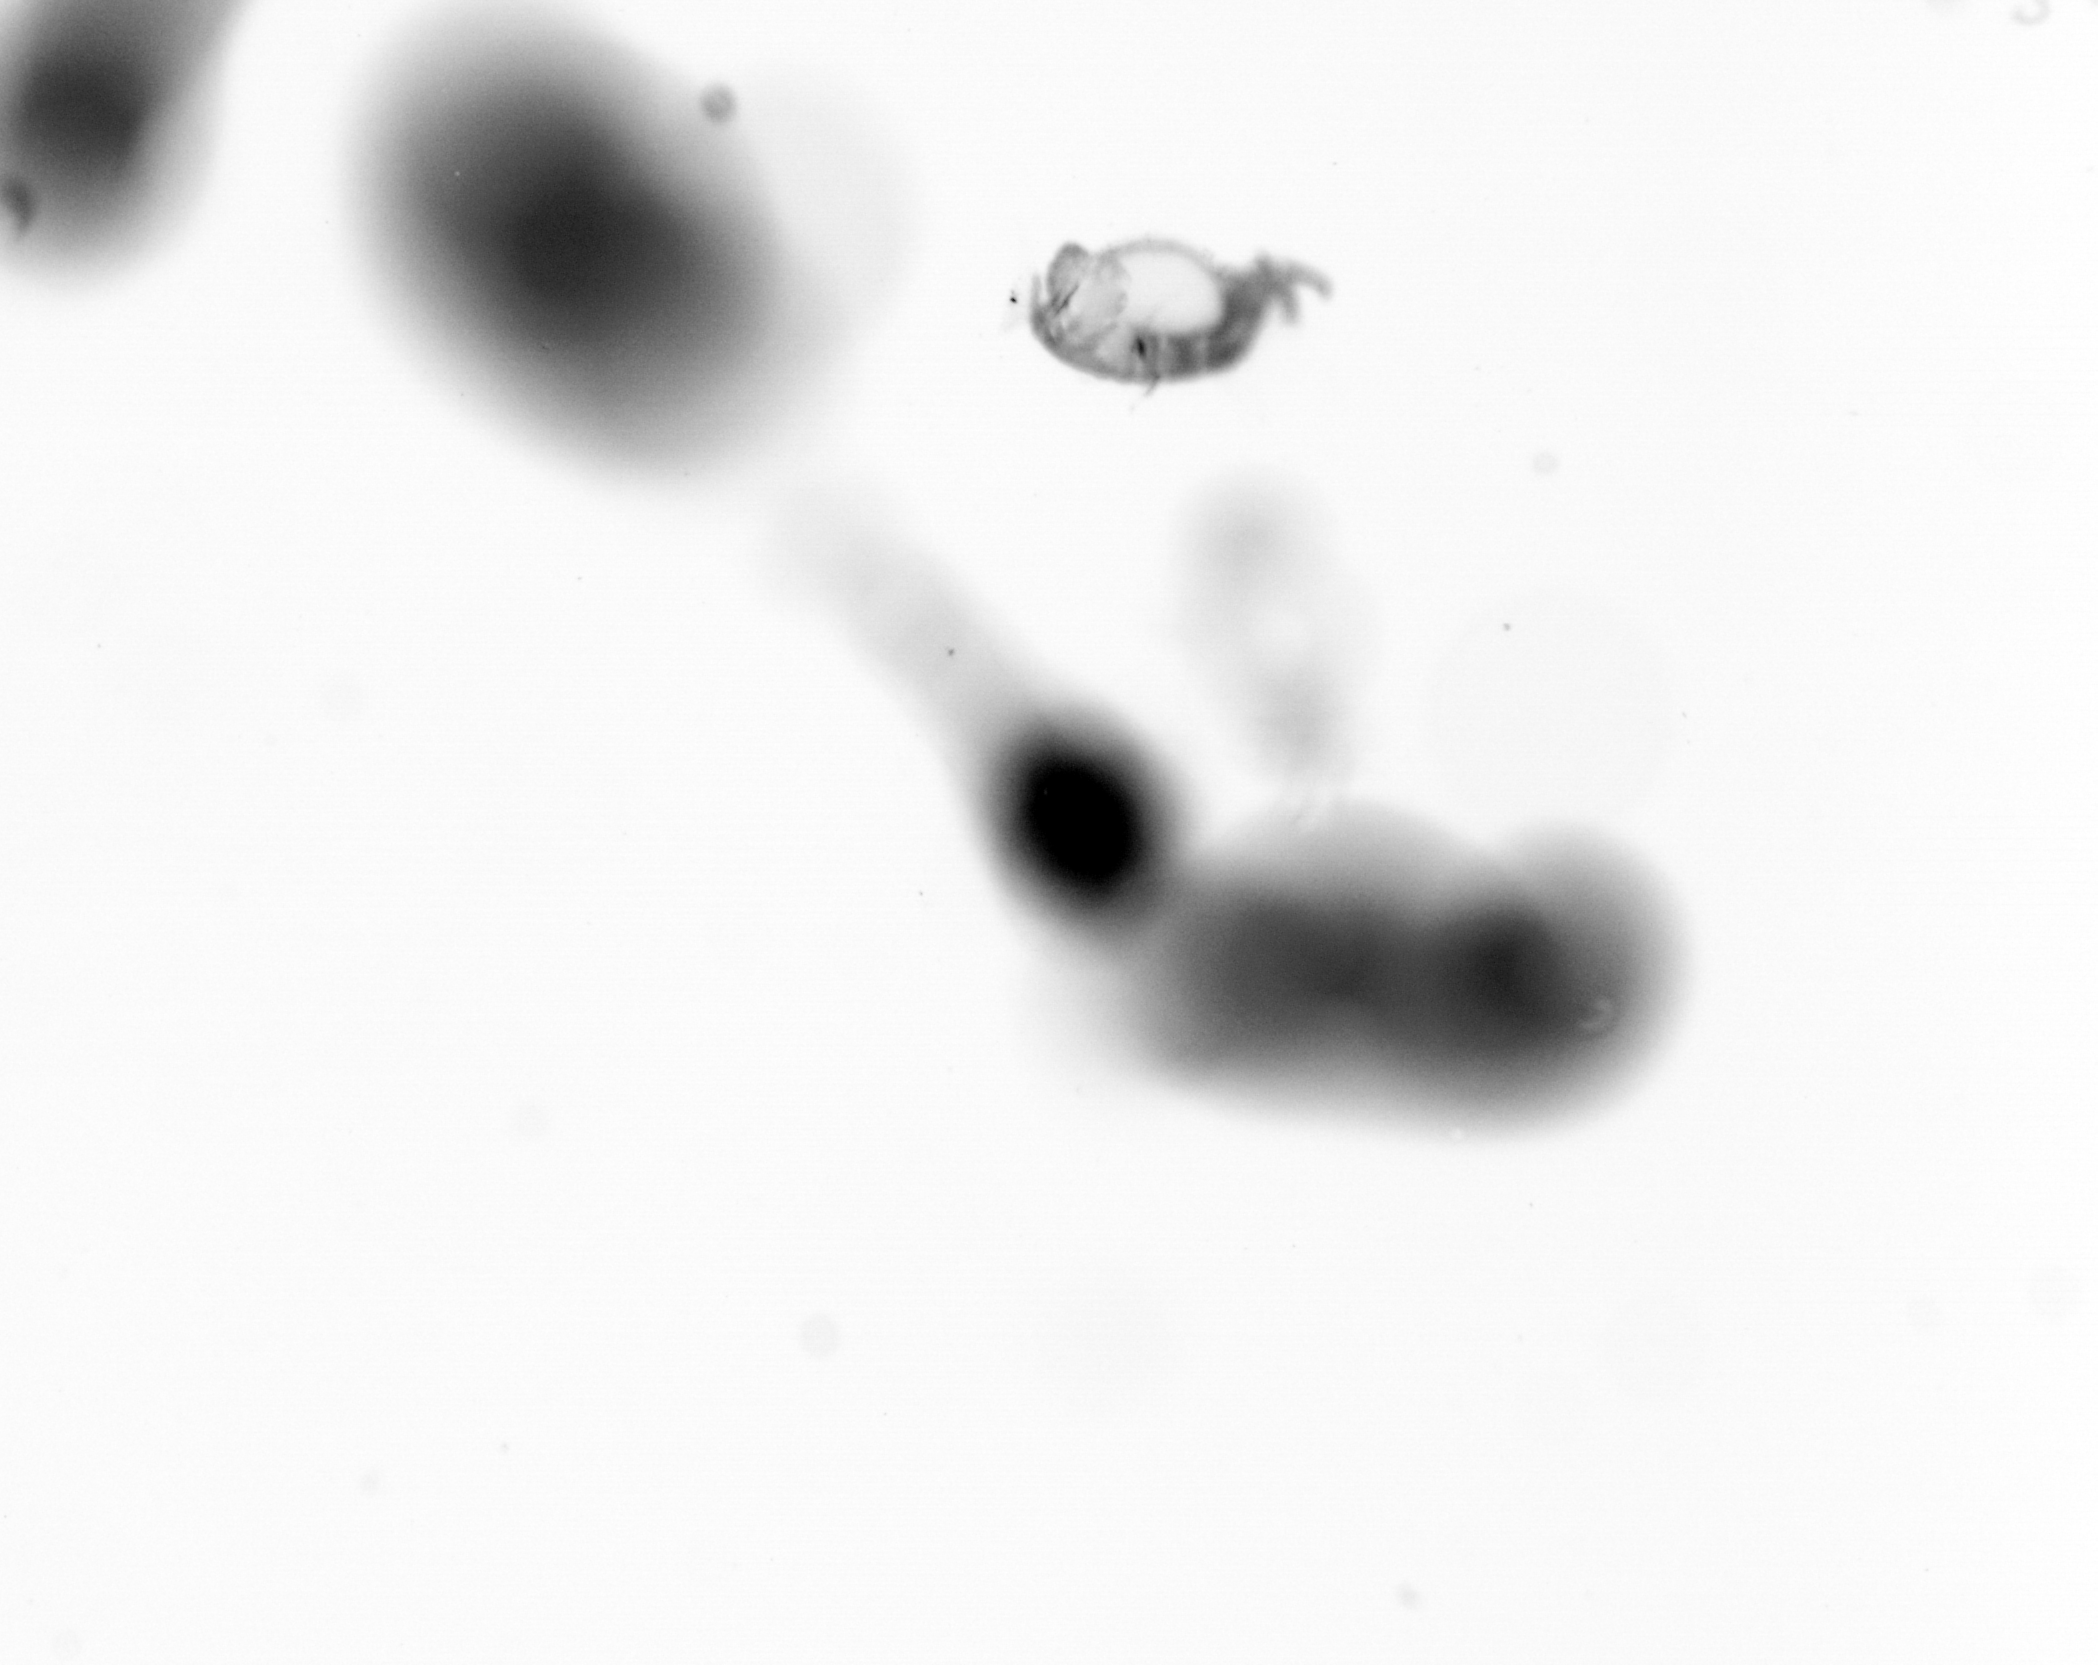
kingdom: Animalia
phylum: Annelida
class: Polychaeta
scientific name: Polychaeta
